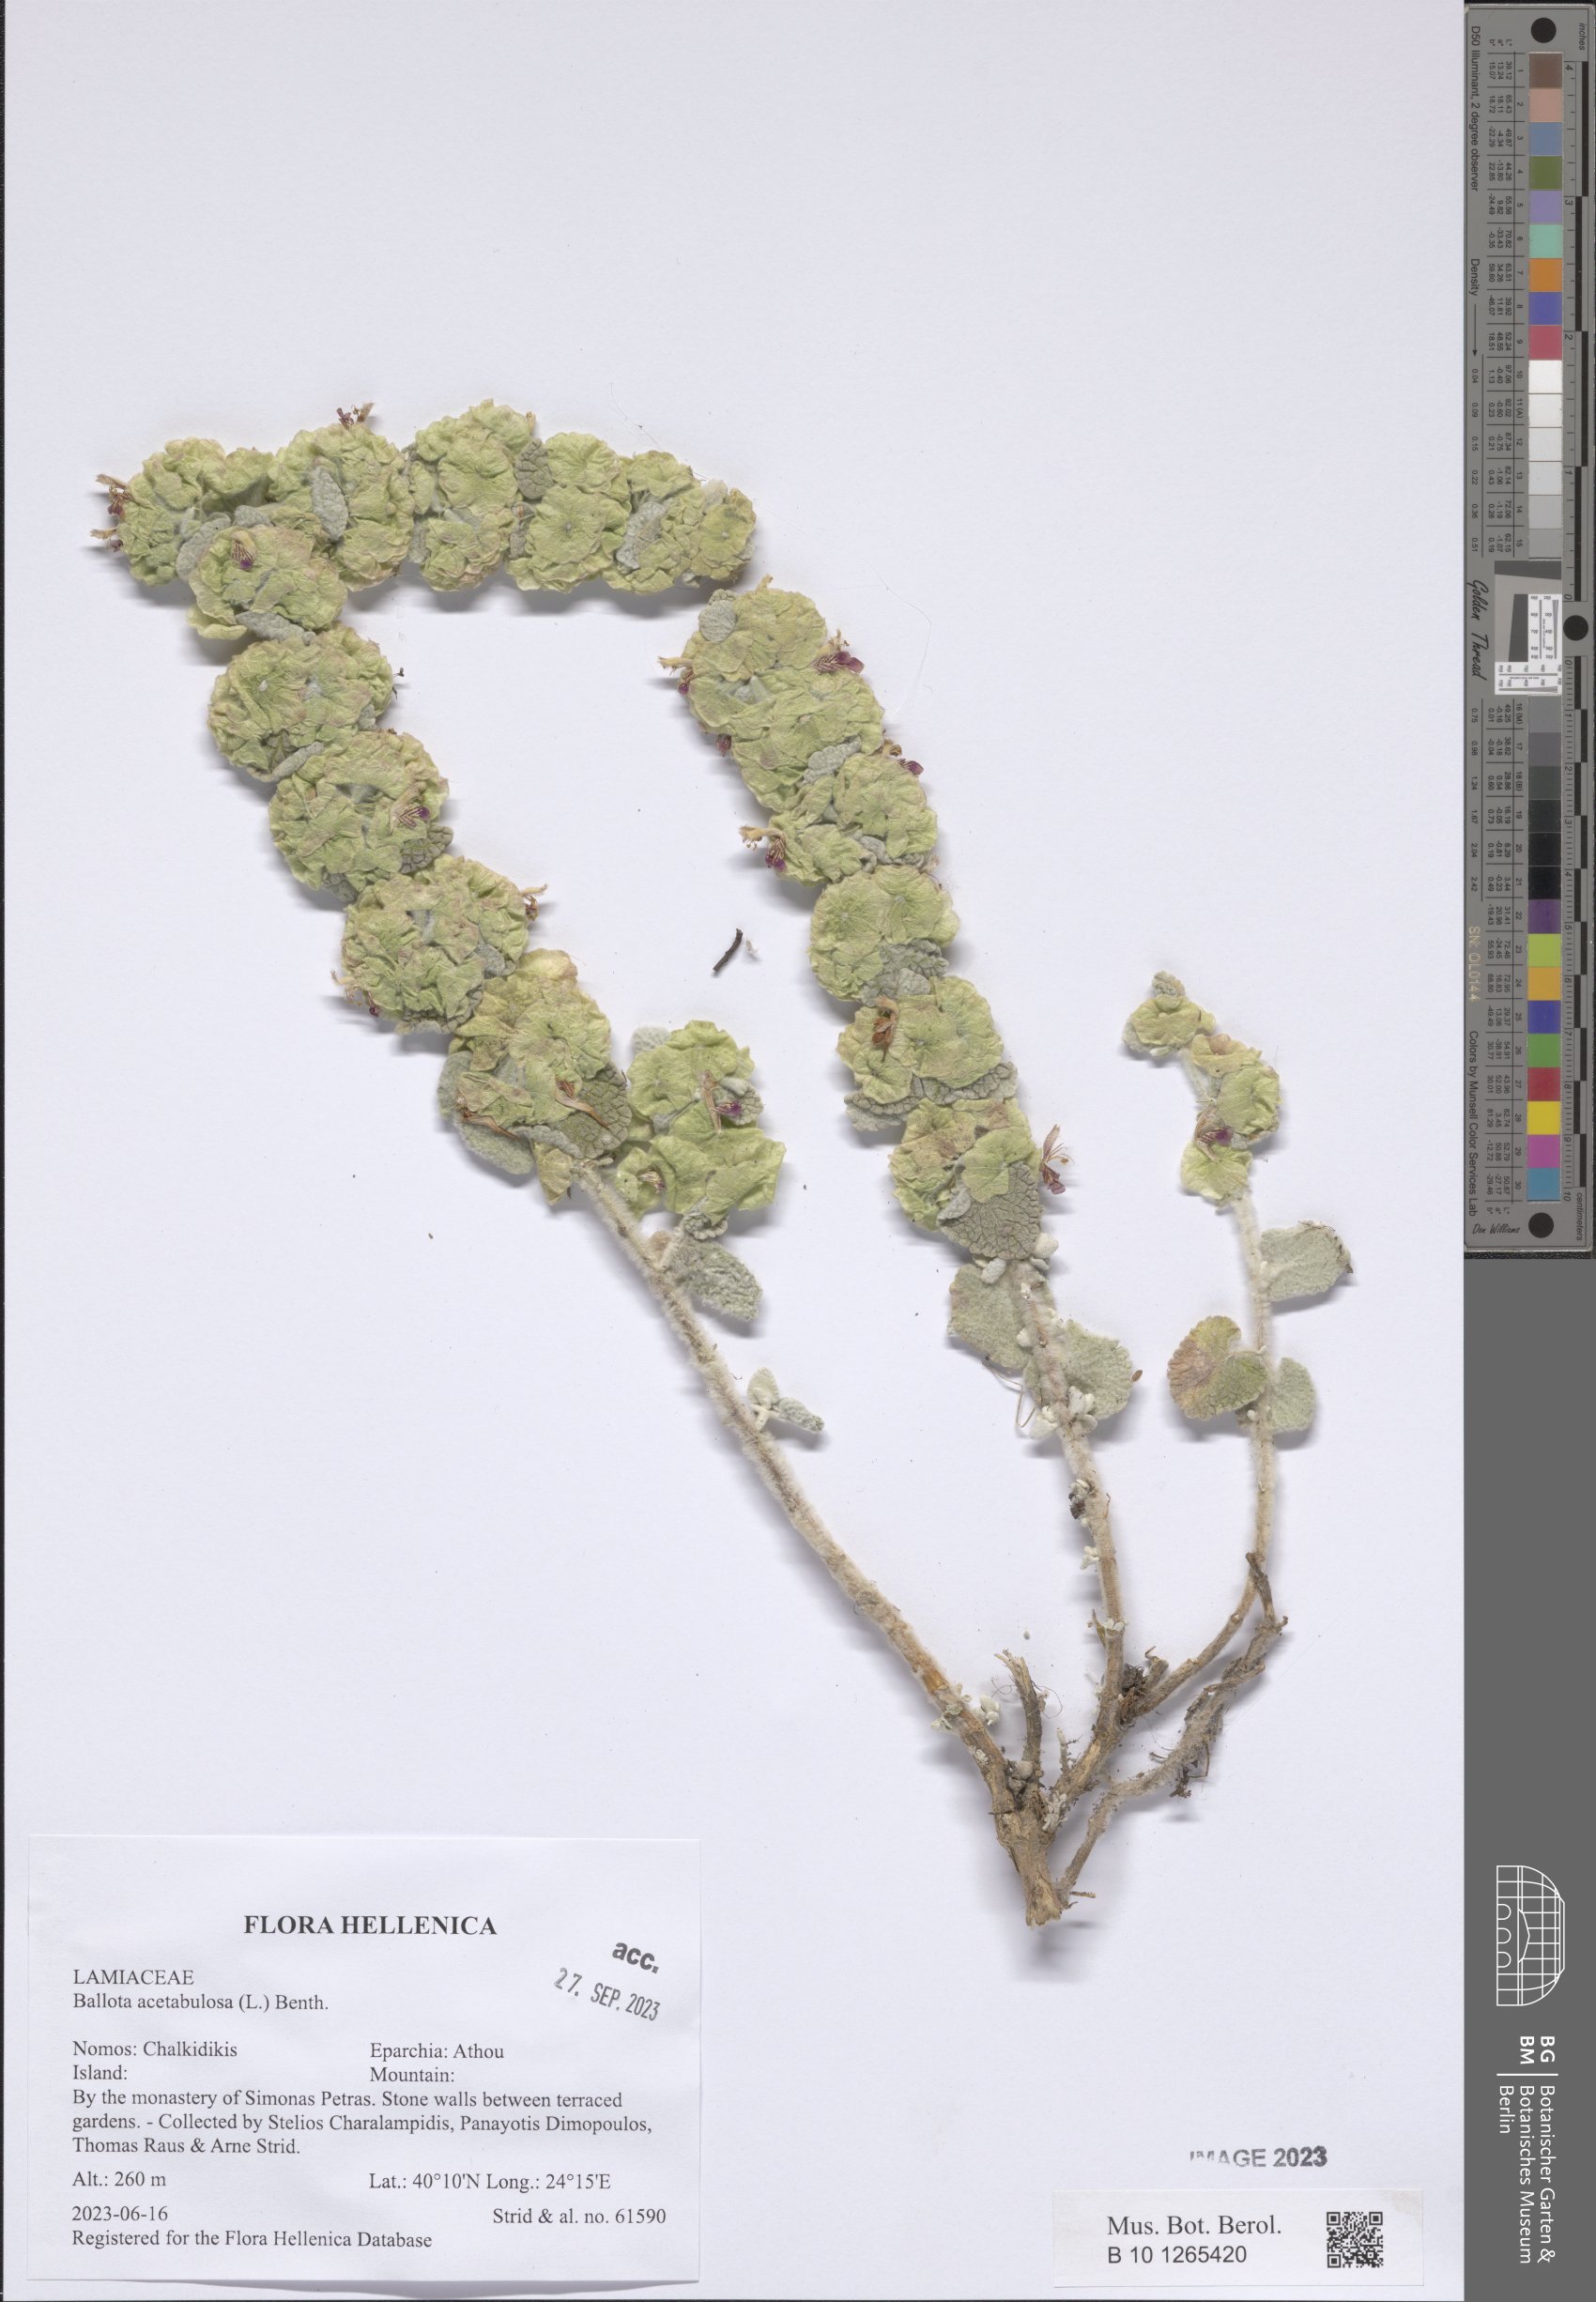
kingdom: Plantae
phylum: Tracheophyta
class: Magnoliopsida
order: Lamiales
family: Lamiaceae
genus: Pseudodictamnus
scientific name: Pseudodictamnus acetabulosus
